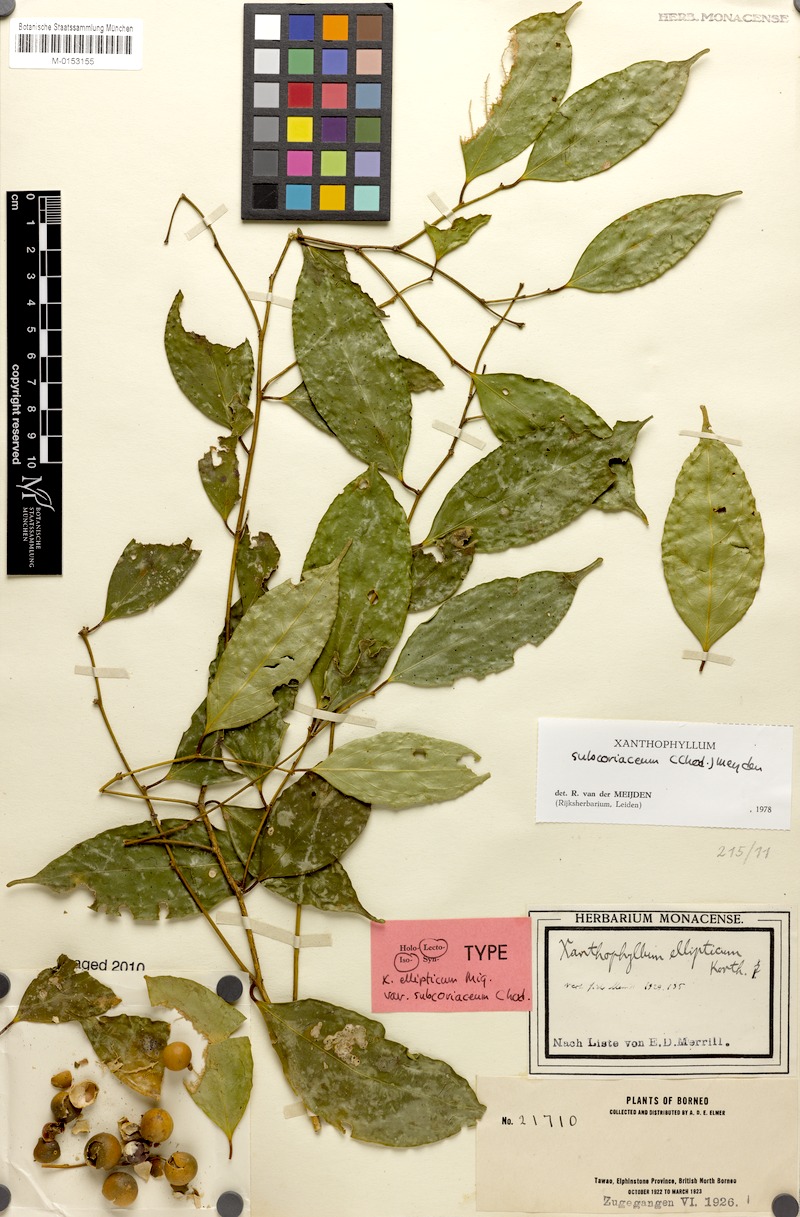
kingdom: Plantae
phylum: Tracheophyta
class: Magnoliopsida
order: Fabales
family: Polygalaceae
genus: Xanthophyllum
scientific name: Xanthophyllum subcoriaceum
